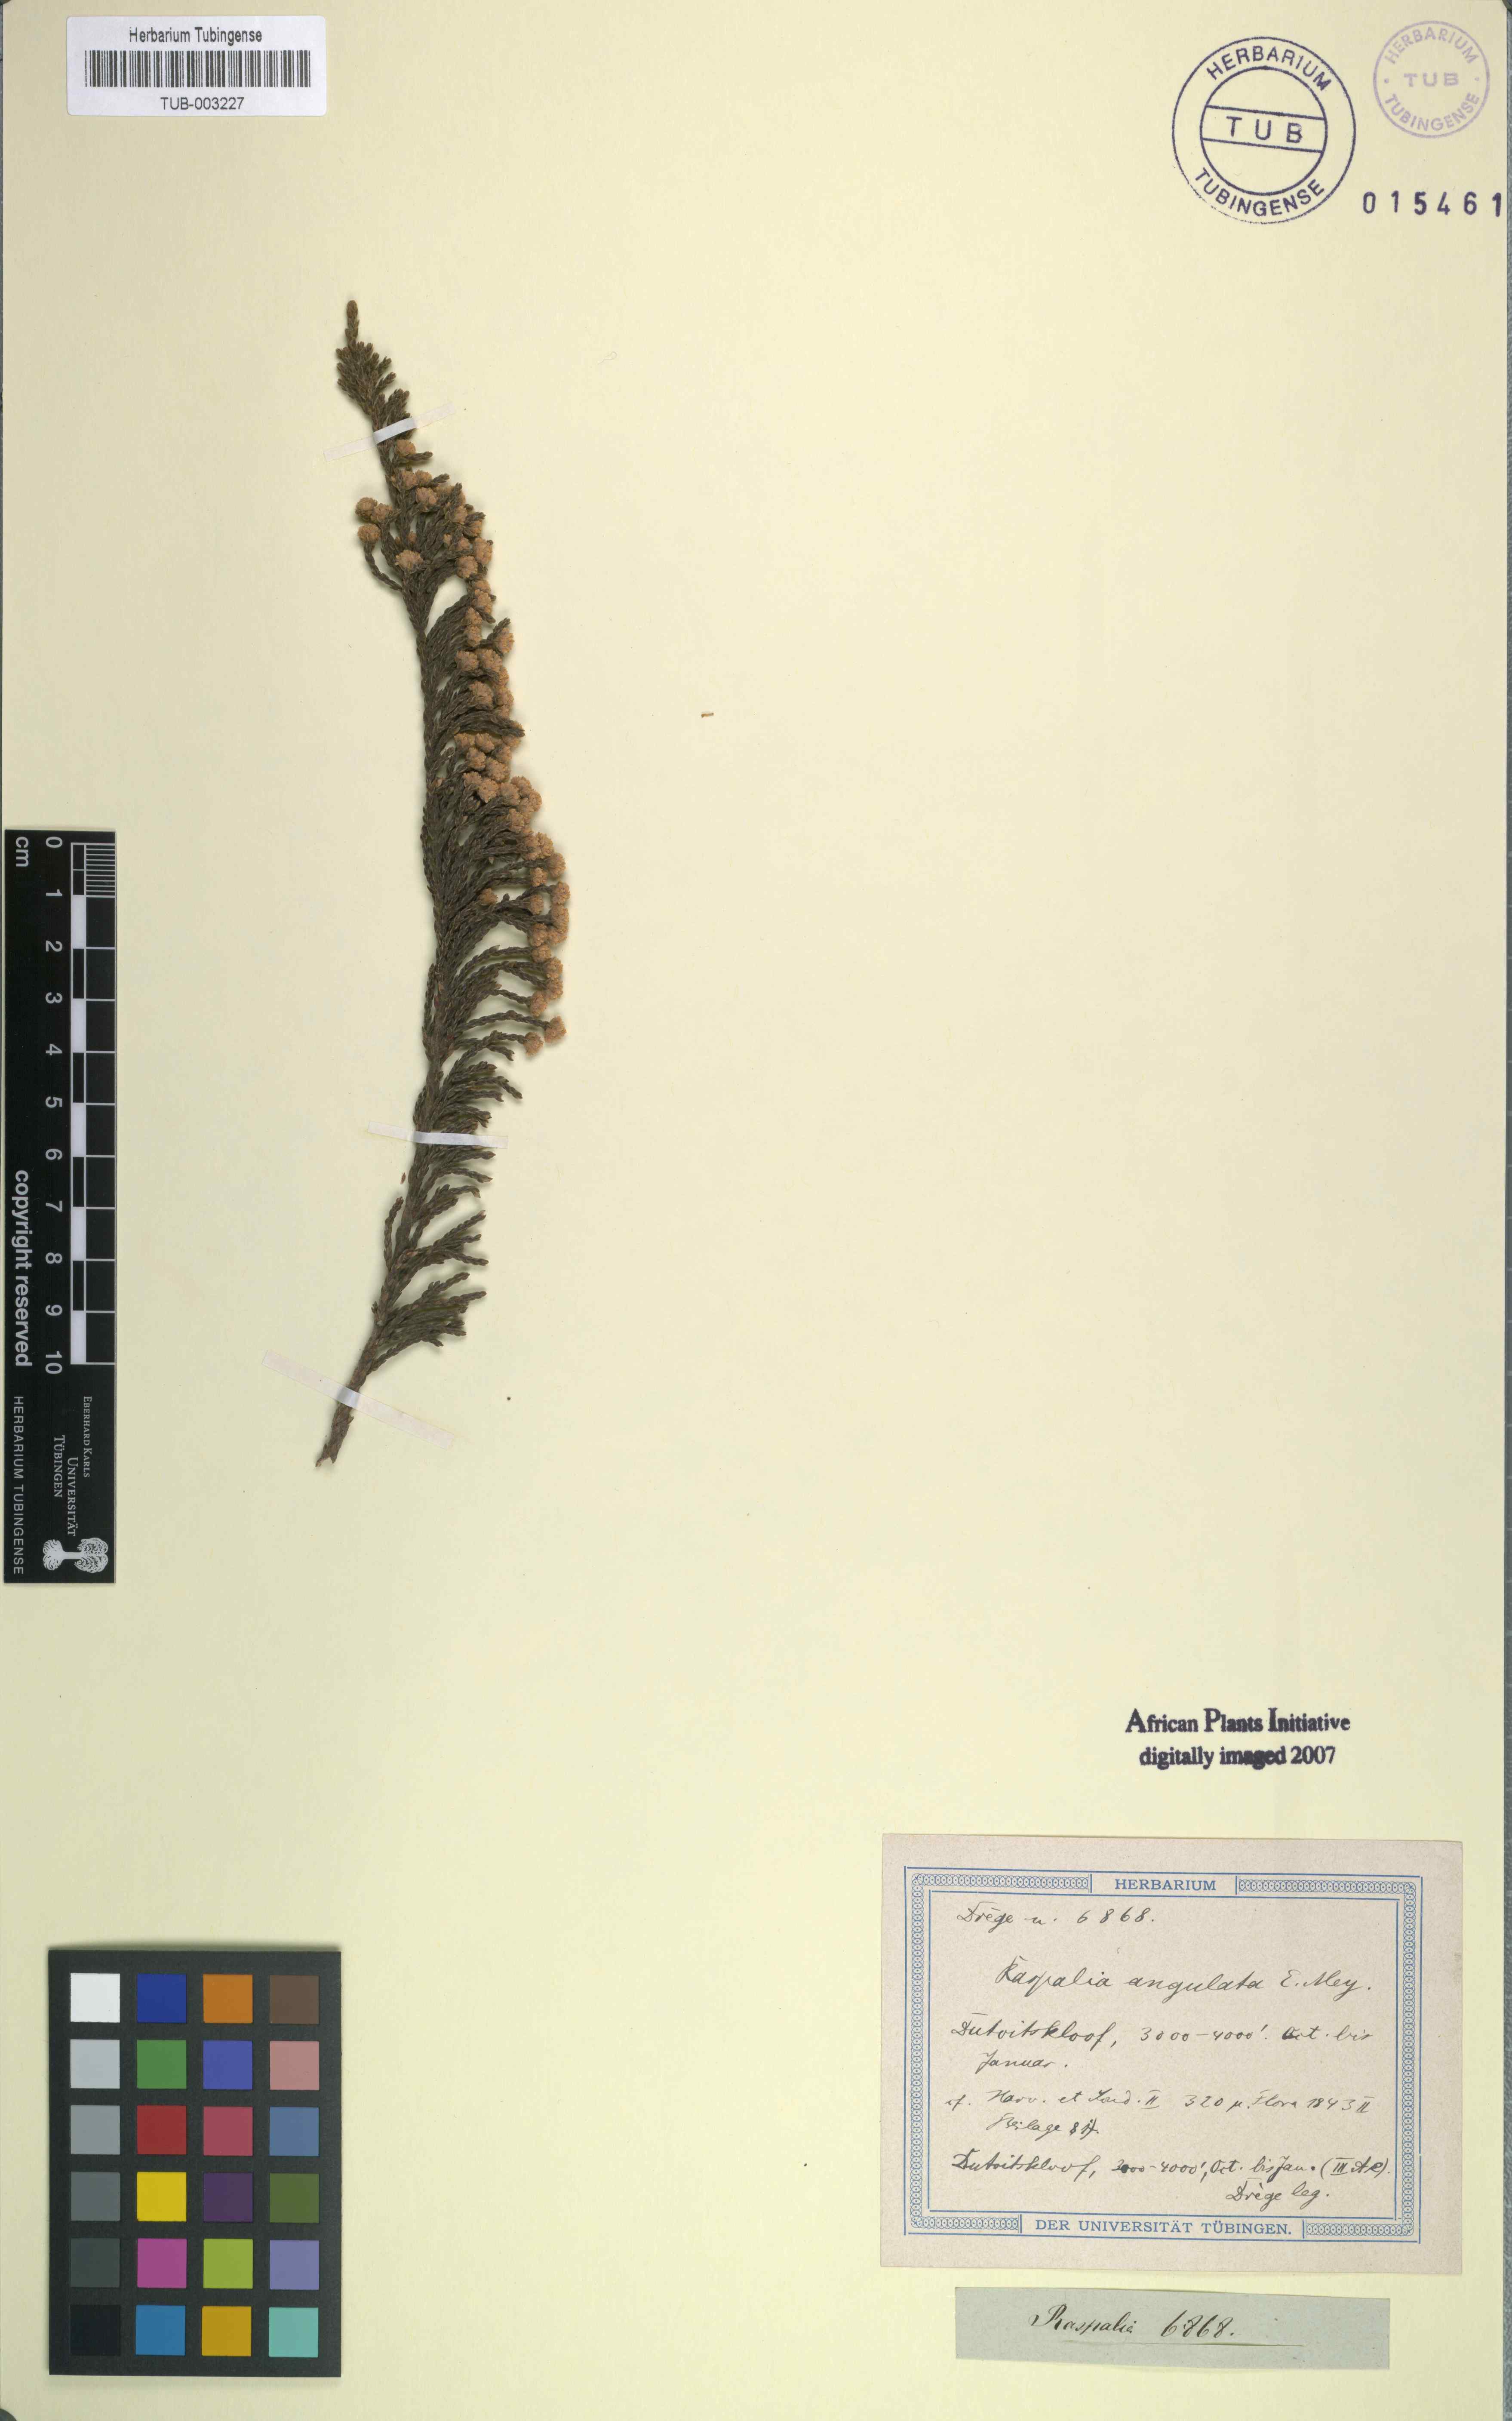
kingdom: Plantae
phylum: Tracheophyta
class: Magnoliopsida
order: Ericales
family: Ericaceae
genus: Erica
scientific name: Erica modesta
